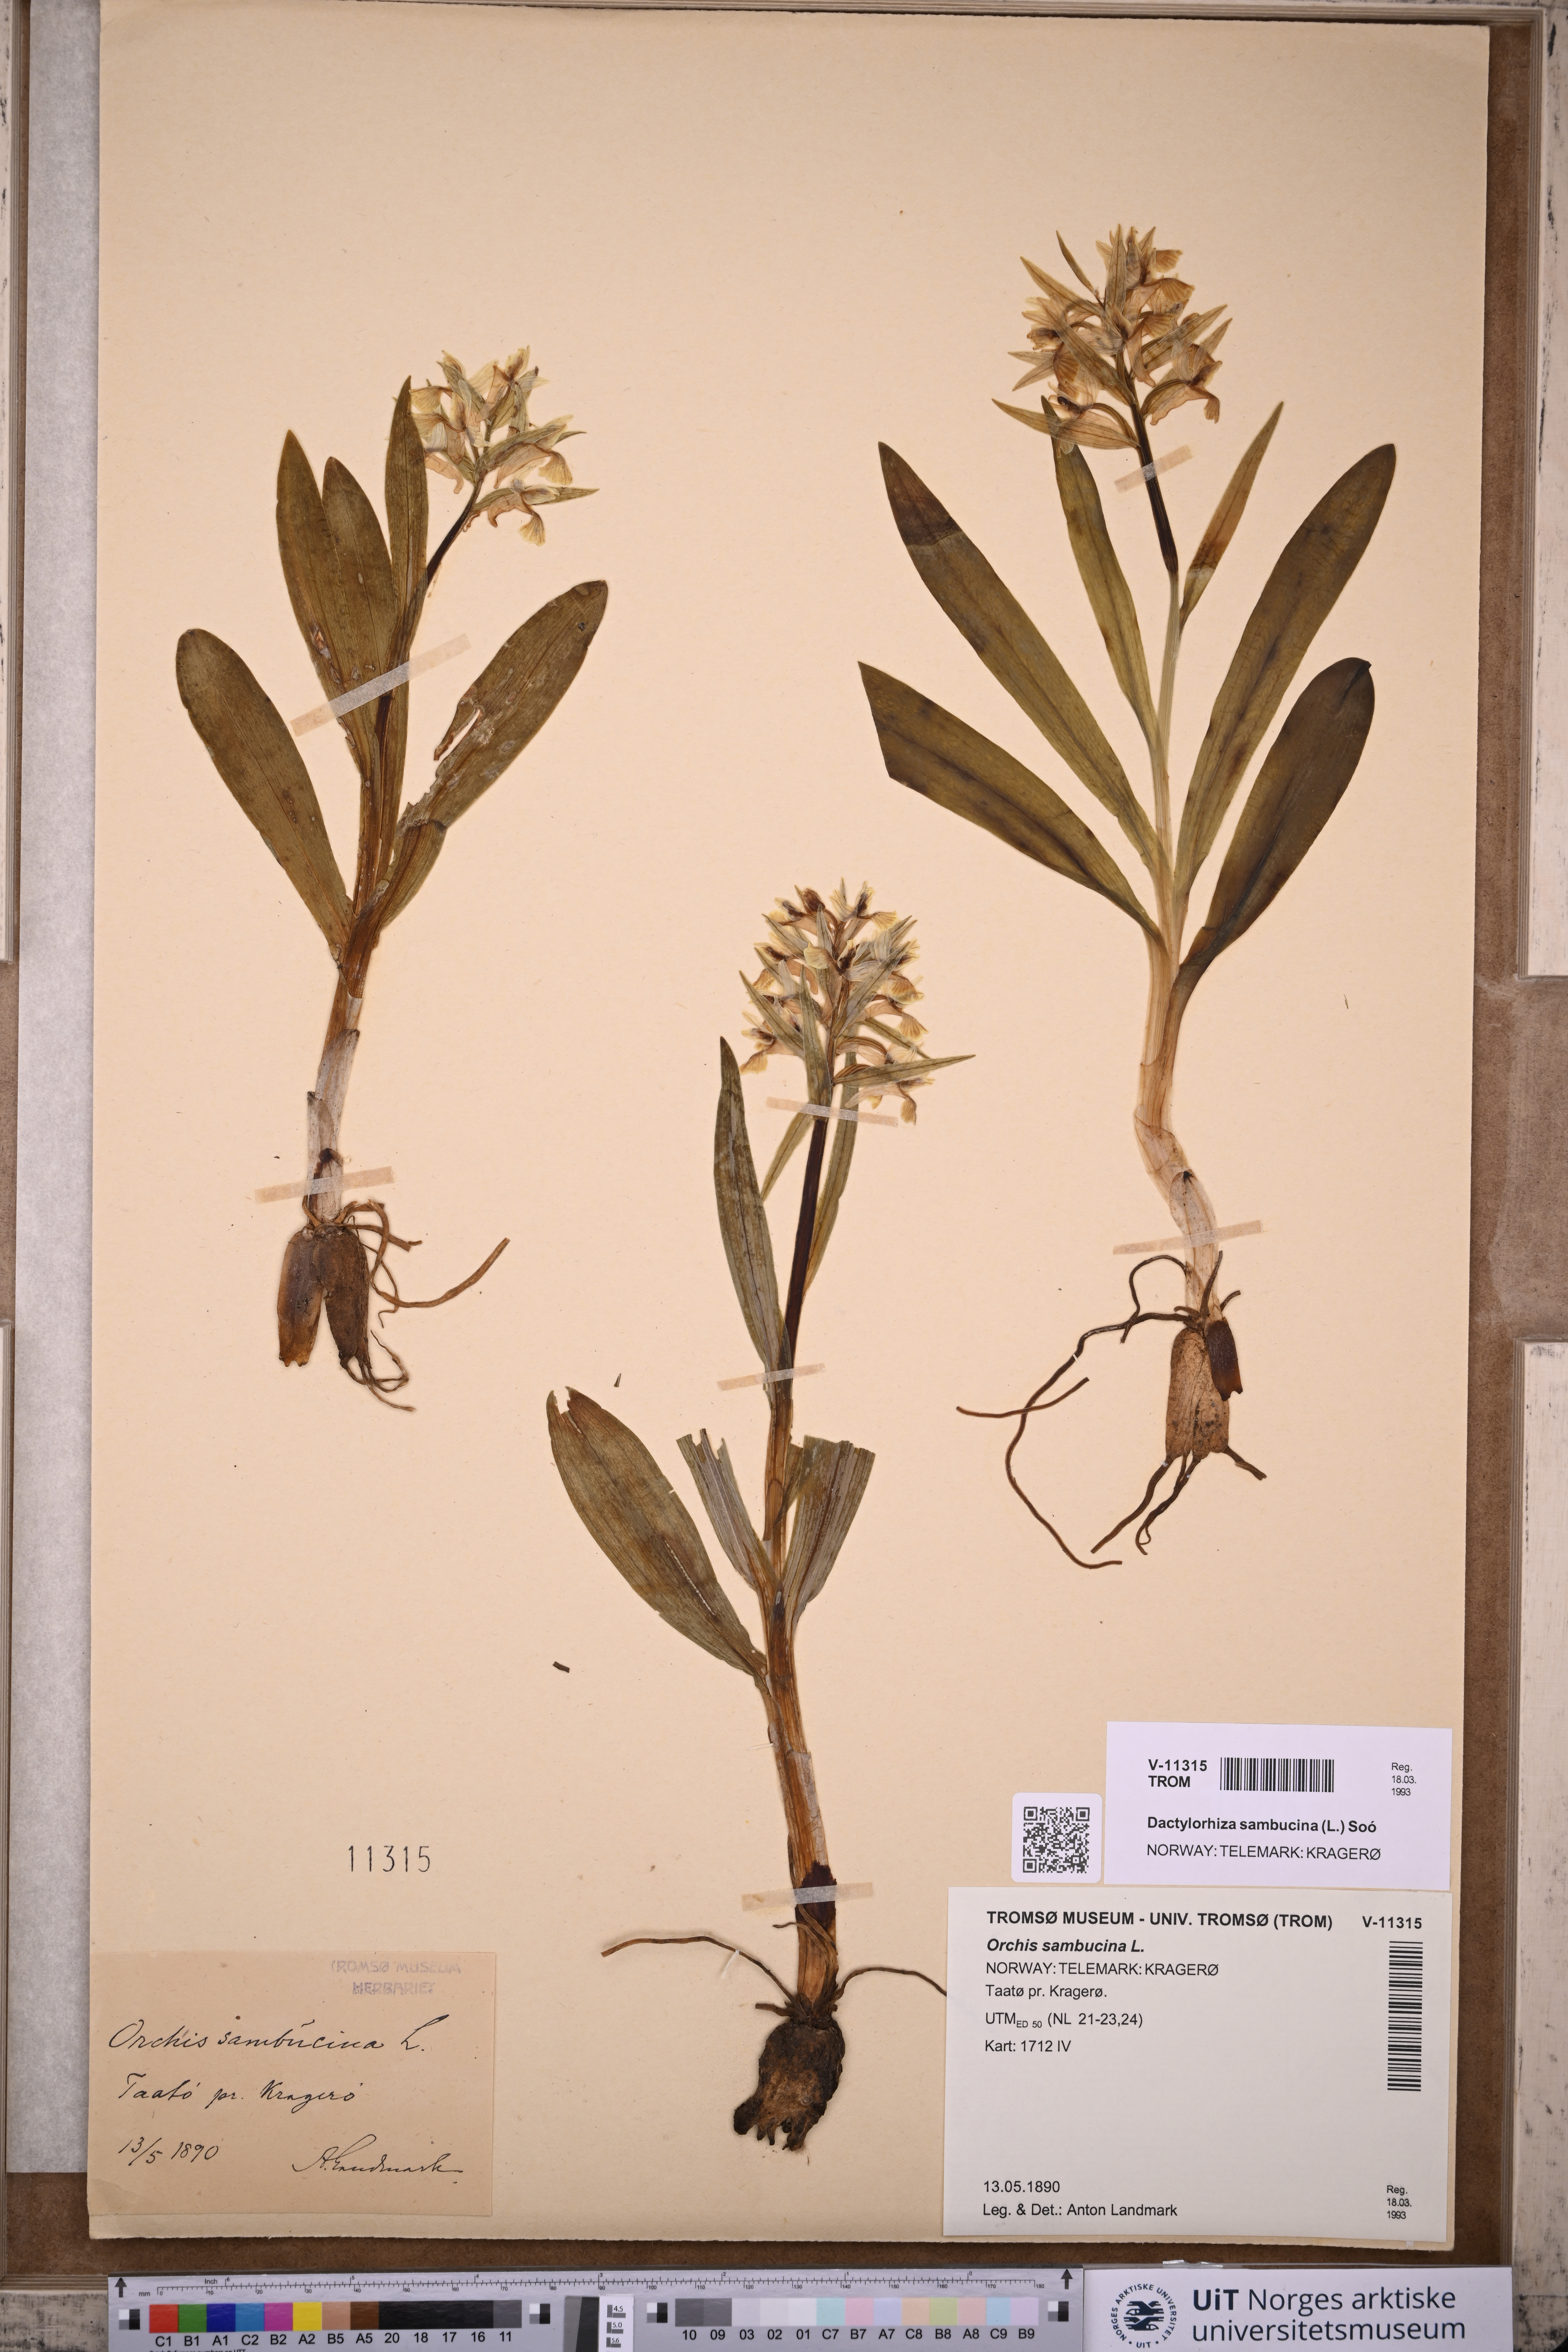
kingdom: Plantae
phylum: Tracheophyta
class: Liliopsida
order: Asparagales
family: Orchidaceae
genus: Dactylorhiza
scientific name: Dactylorhiza sambucina
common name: Elder-flowered orchid
